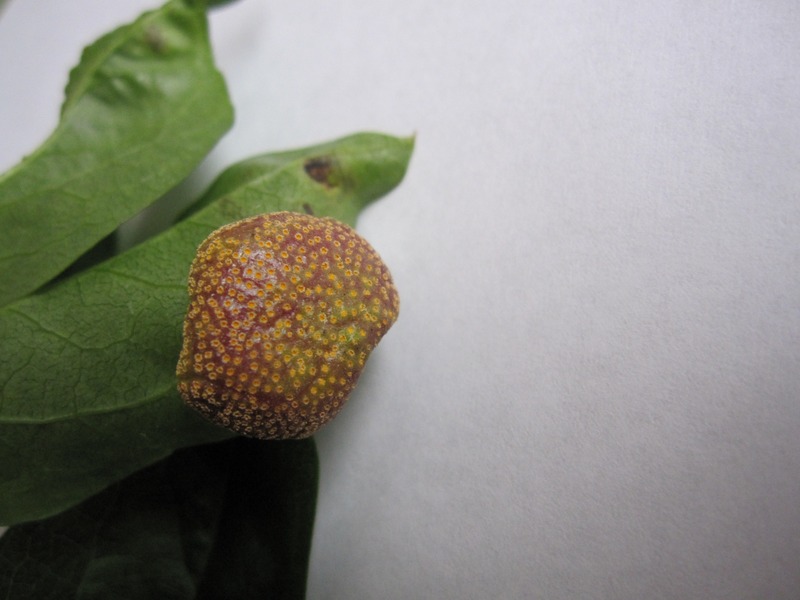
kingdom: Fungi
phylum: Basidiomycota
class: Pucciniomycetes
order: Pucciniales
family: Pucciniaceae
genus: Puccinia
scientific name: Puccinia recondita
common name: Brown rust of wheat
